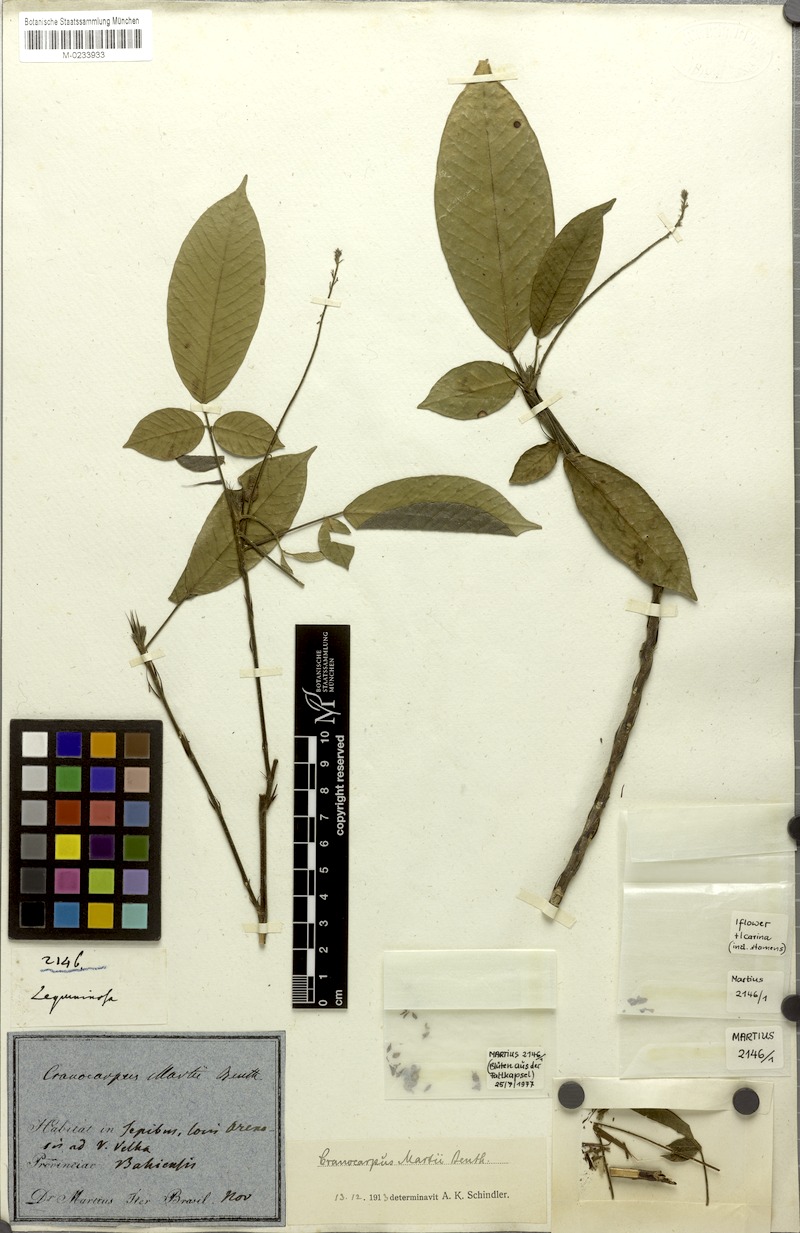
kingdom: Plantae
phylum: Tracheophyta
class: Magnoliopsida
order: Fabales
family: Fabaceae
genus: Cranocarpus
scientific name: Cranocarpus martii
